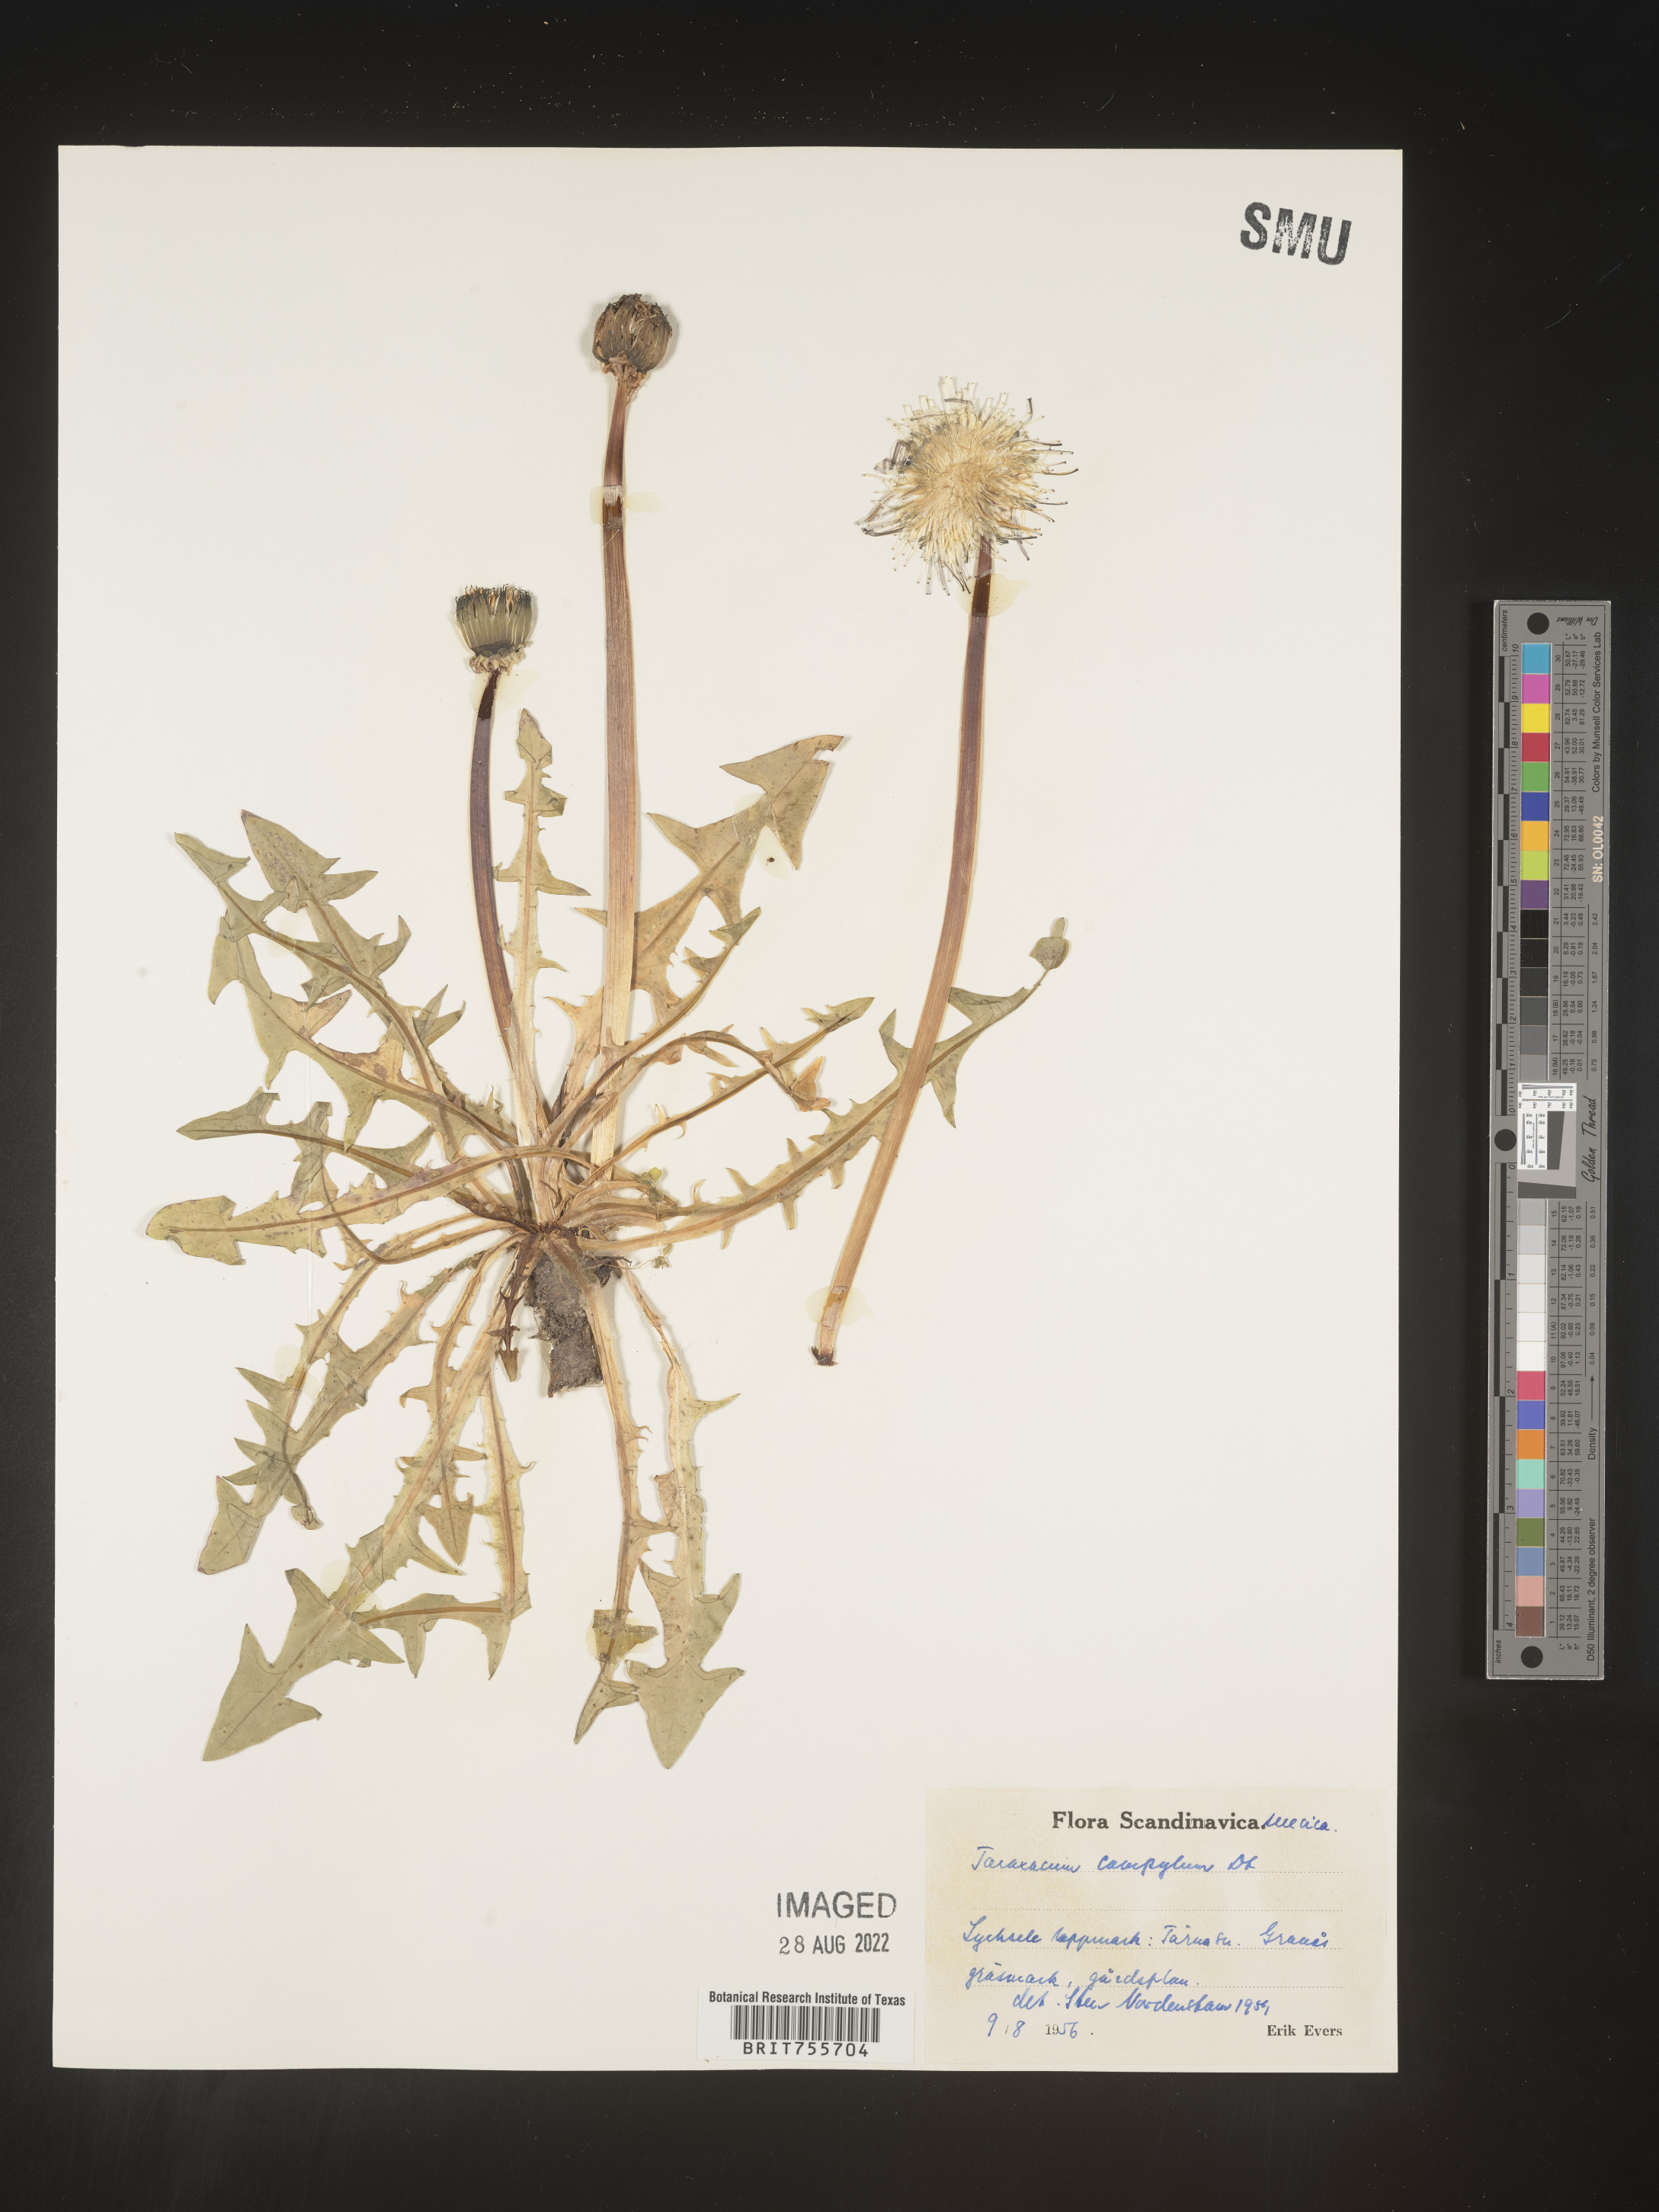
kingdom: Plantae
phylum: Tracheophyta
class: Magnoliopsida
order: Asterales
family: Asteraceae
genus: Taraxacum
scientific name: Taraxacum
